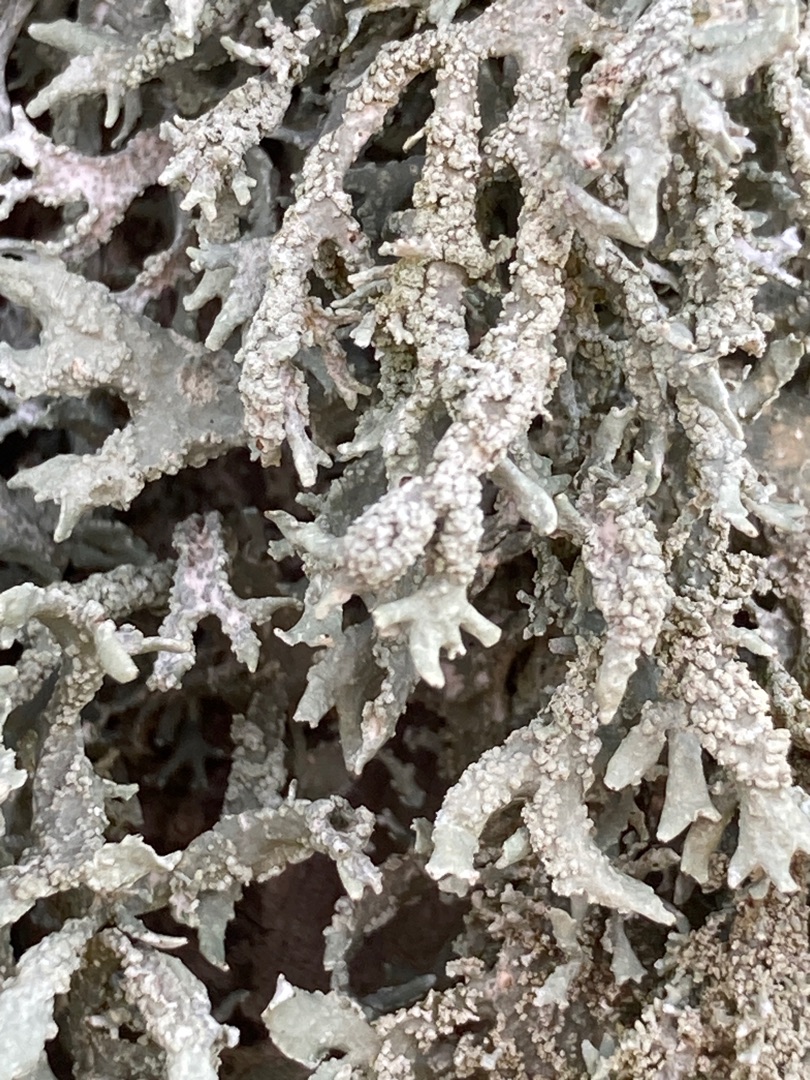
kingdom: Fungi
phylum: Ascomycota
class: Lecanoromycetes
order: Lecanorales
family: Parmeliaceae
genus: Evernia
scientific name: Evernia prunastri
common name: Almindelig slåenlav
